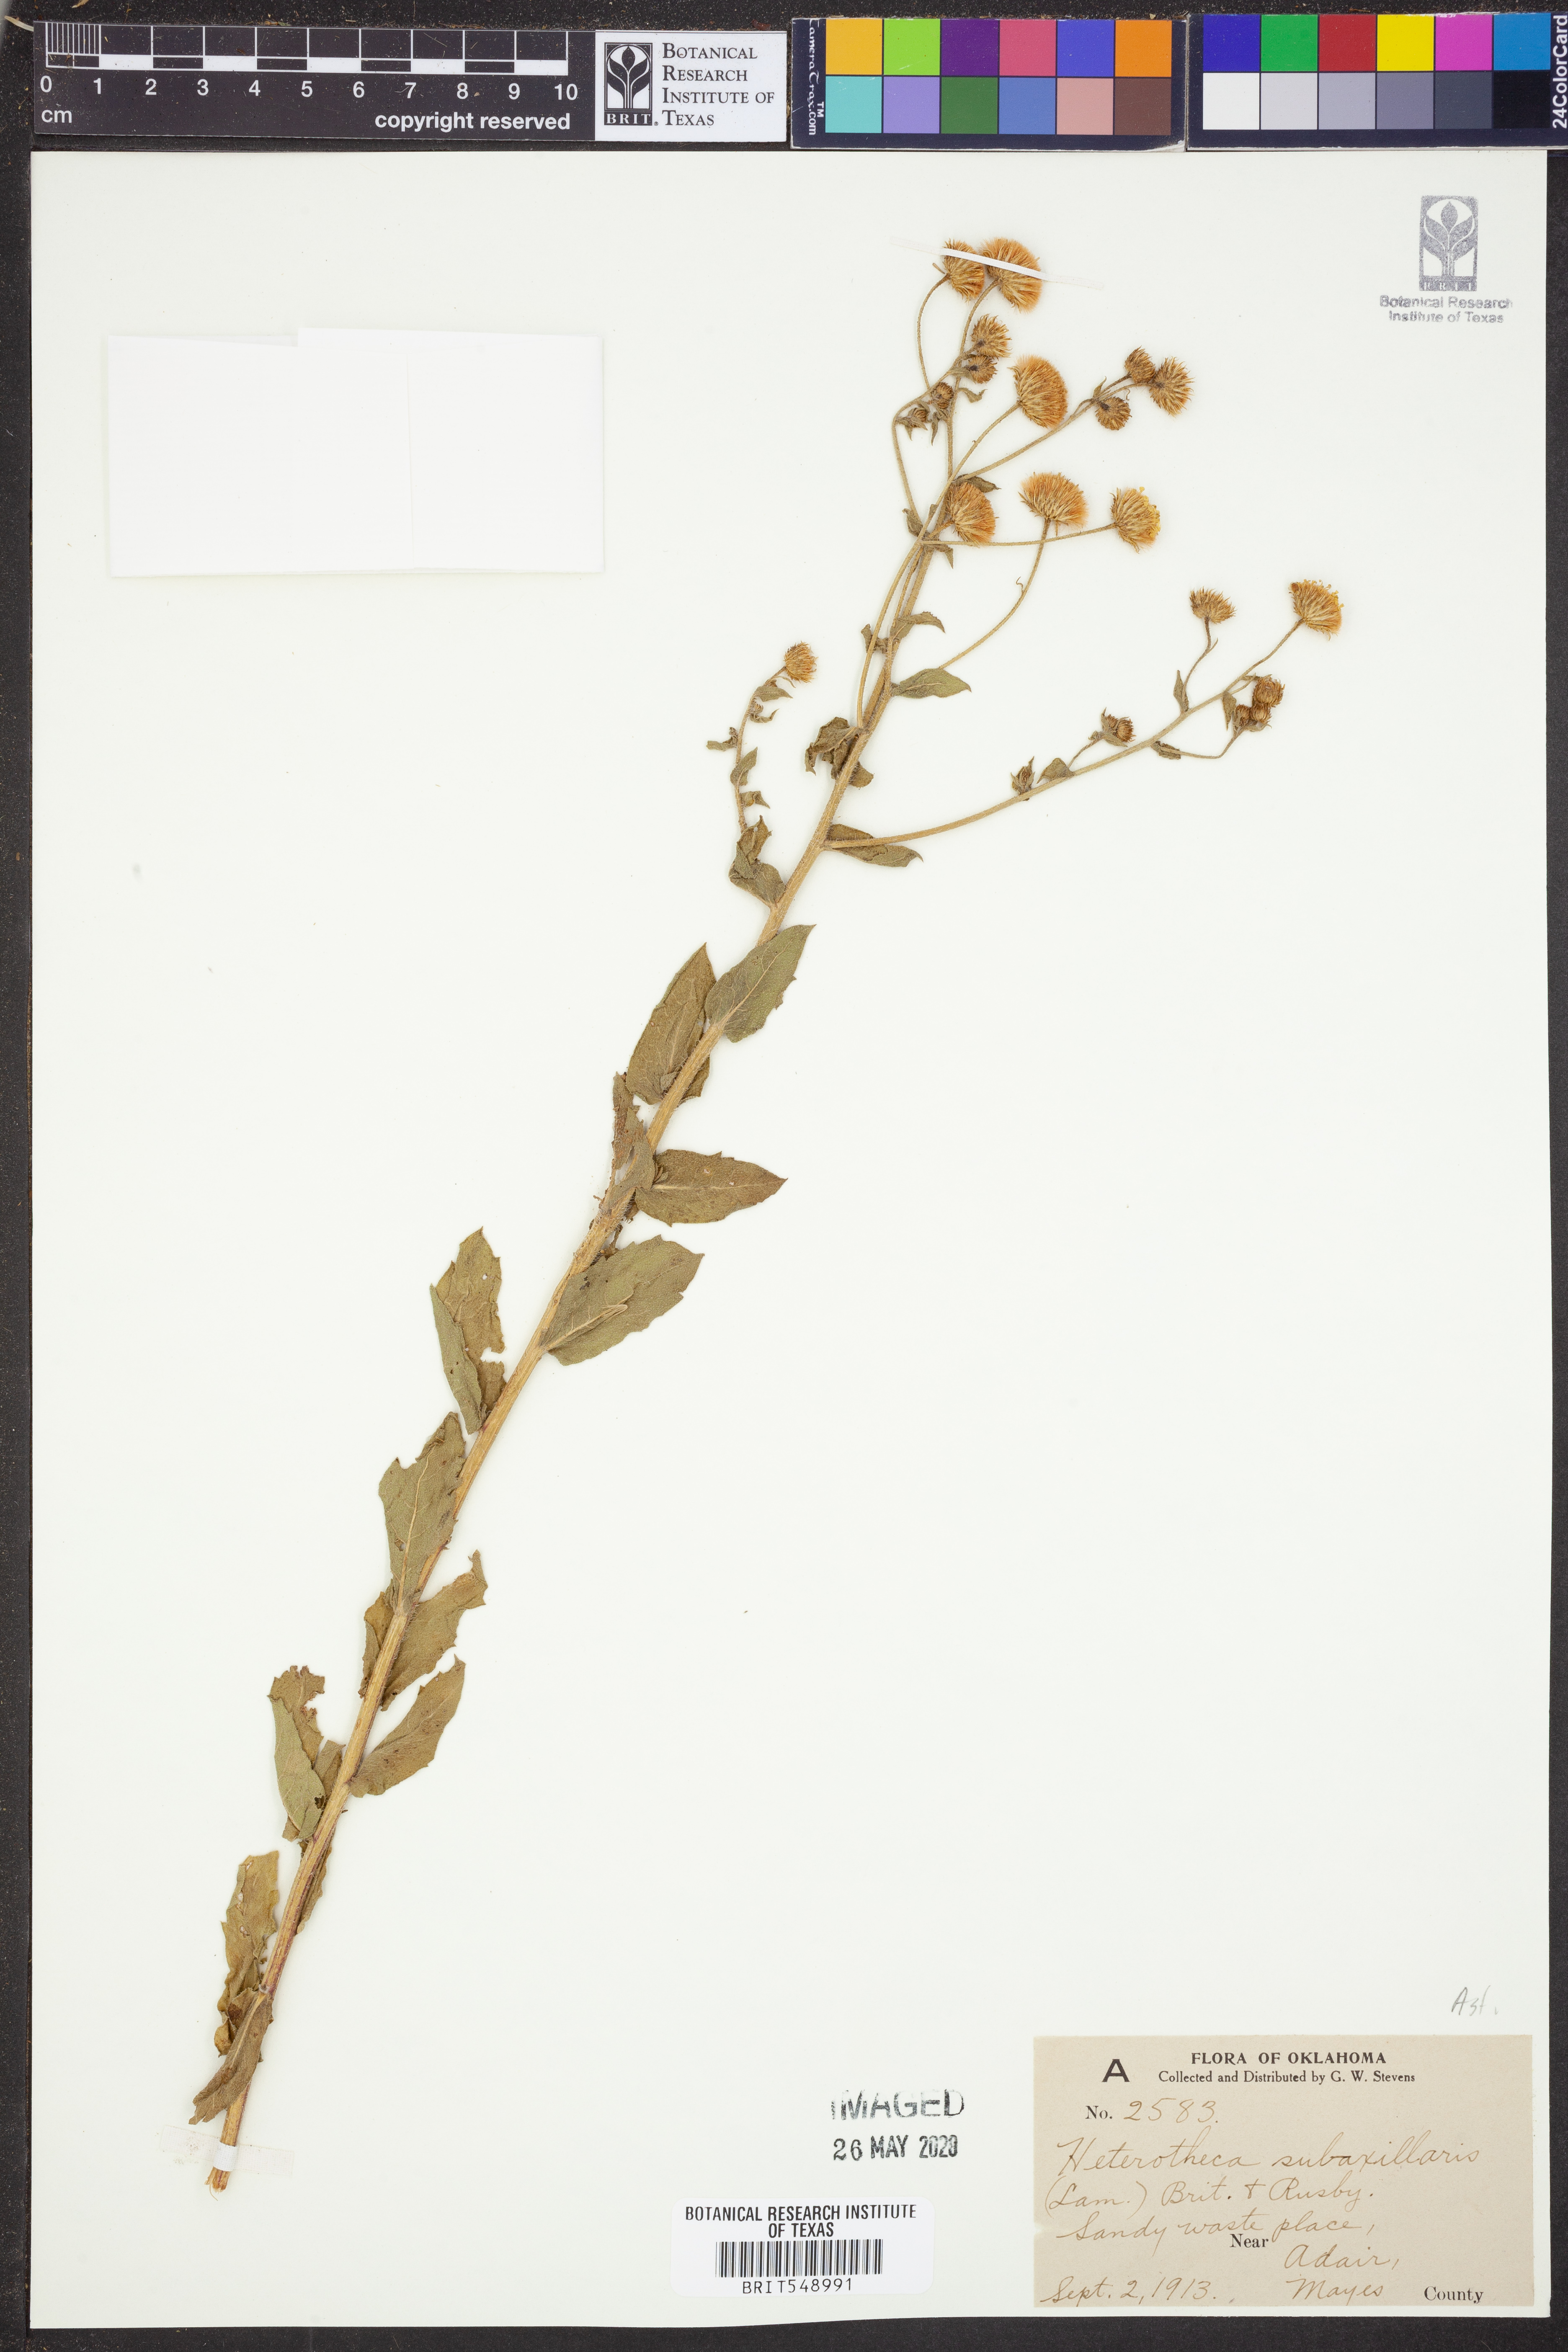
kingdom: Plantae
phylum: Tracheophyta
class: Magnoliopsida
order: Asterales
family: Asteraceae
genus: Heterotheca
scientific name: Heterotheca subaxillaris
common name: Camphorweed
